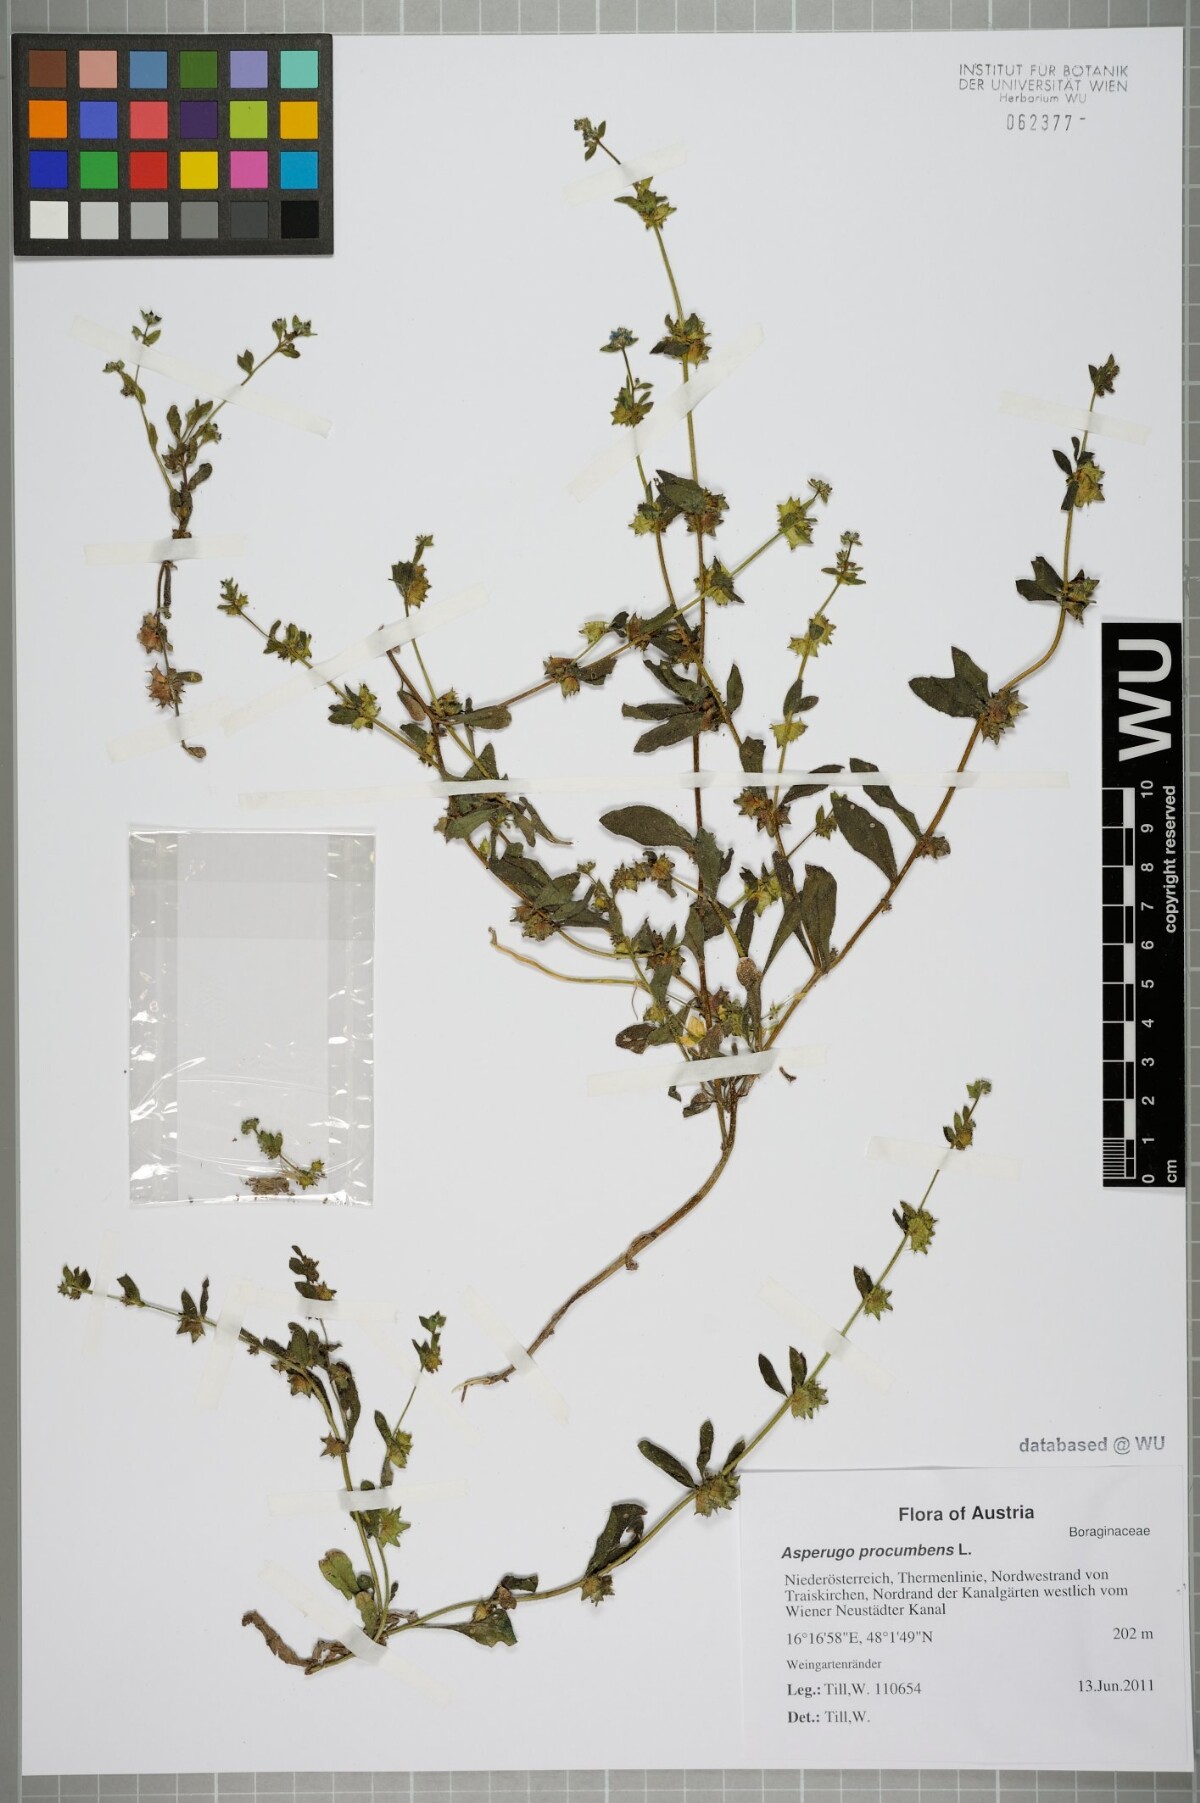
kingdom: Plantae
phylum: Tracheophyta
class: Magnoliopsida
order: Boraginales
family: Boraginaceae
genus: Asperugo
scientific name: Asperugo procumbens
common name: Madwort
